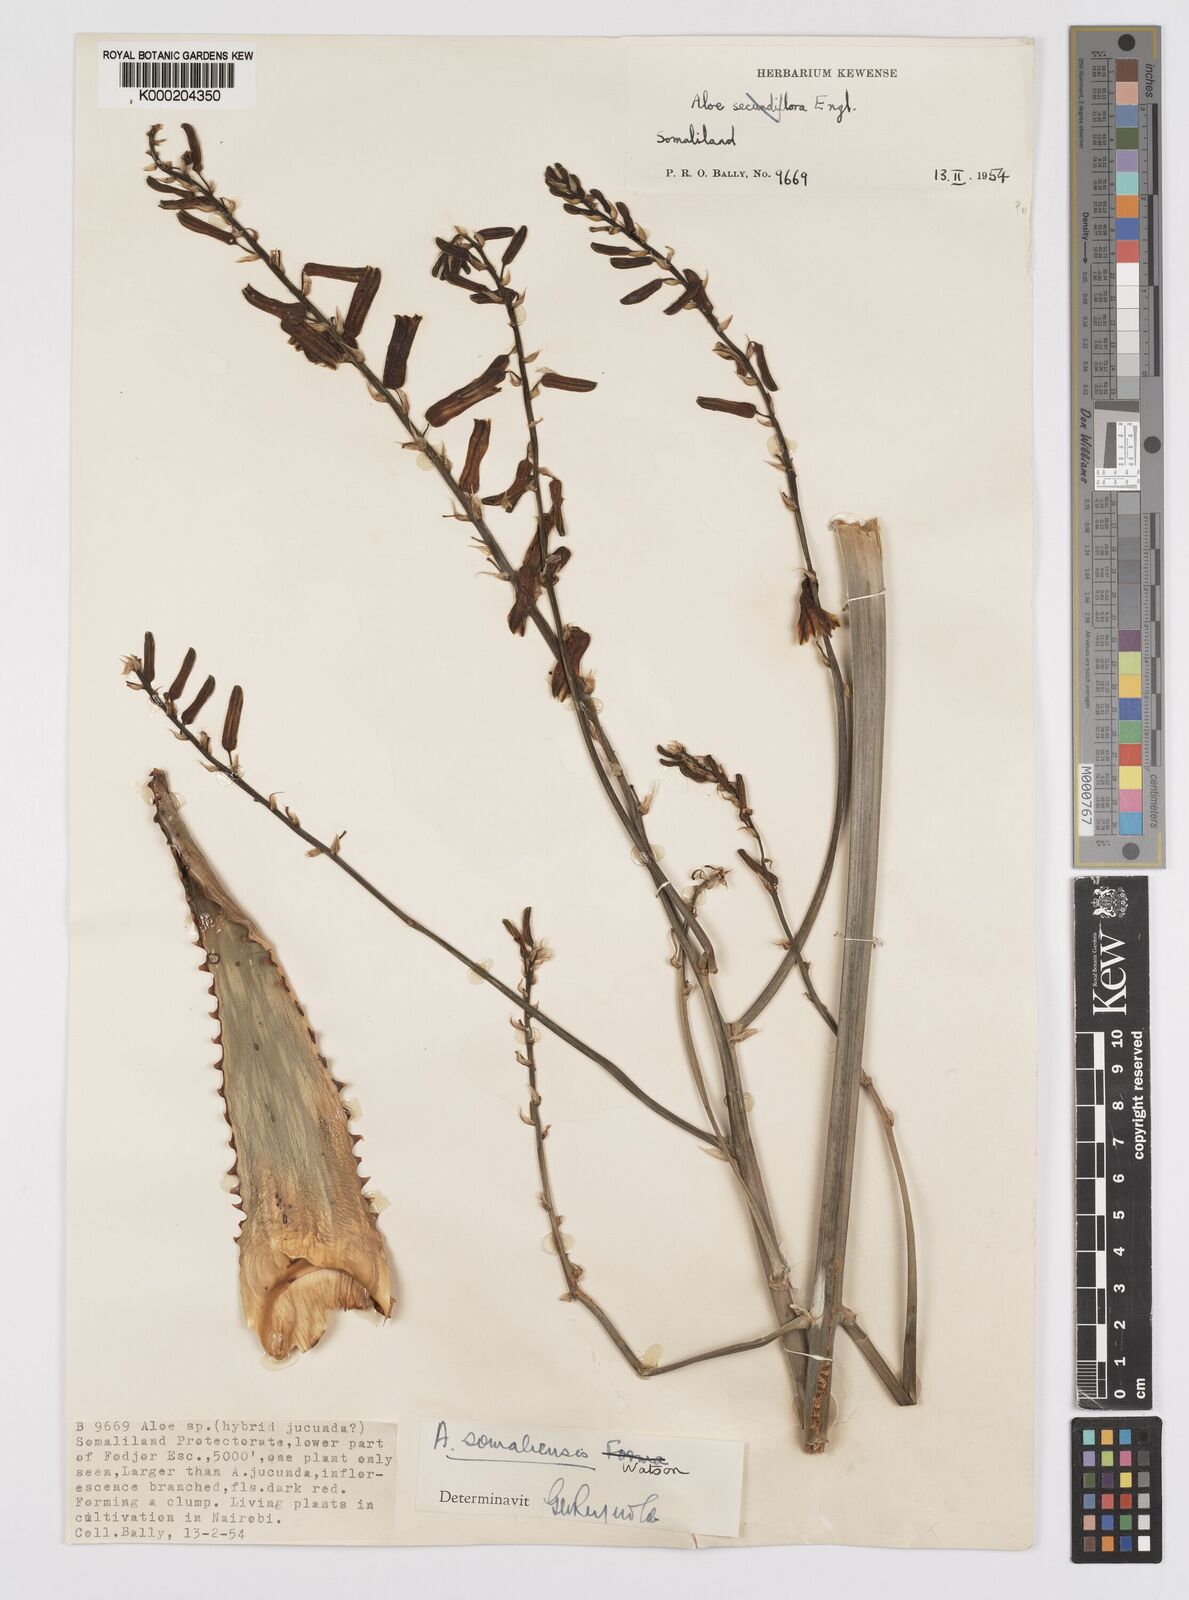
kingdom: Plantae
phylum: Tracheophyta
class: Liliopsida
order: Asparagales
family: Asphodelaceae
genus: Aloe
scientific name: Aloe somaliensis
